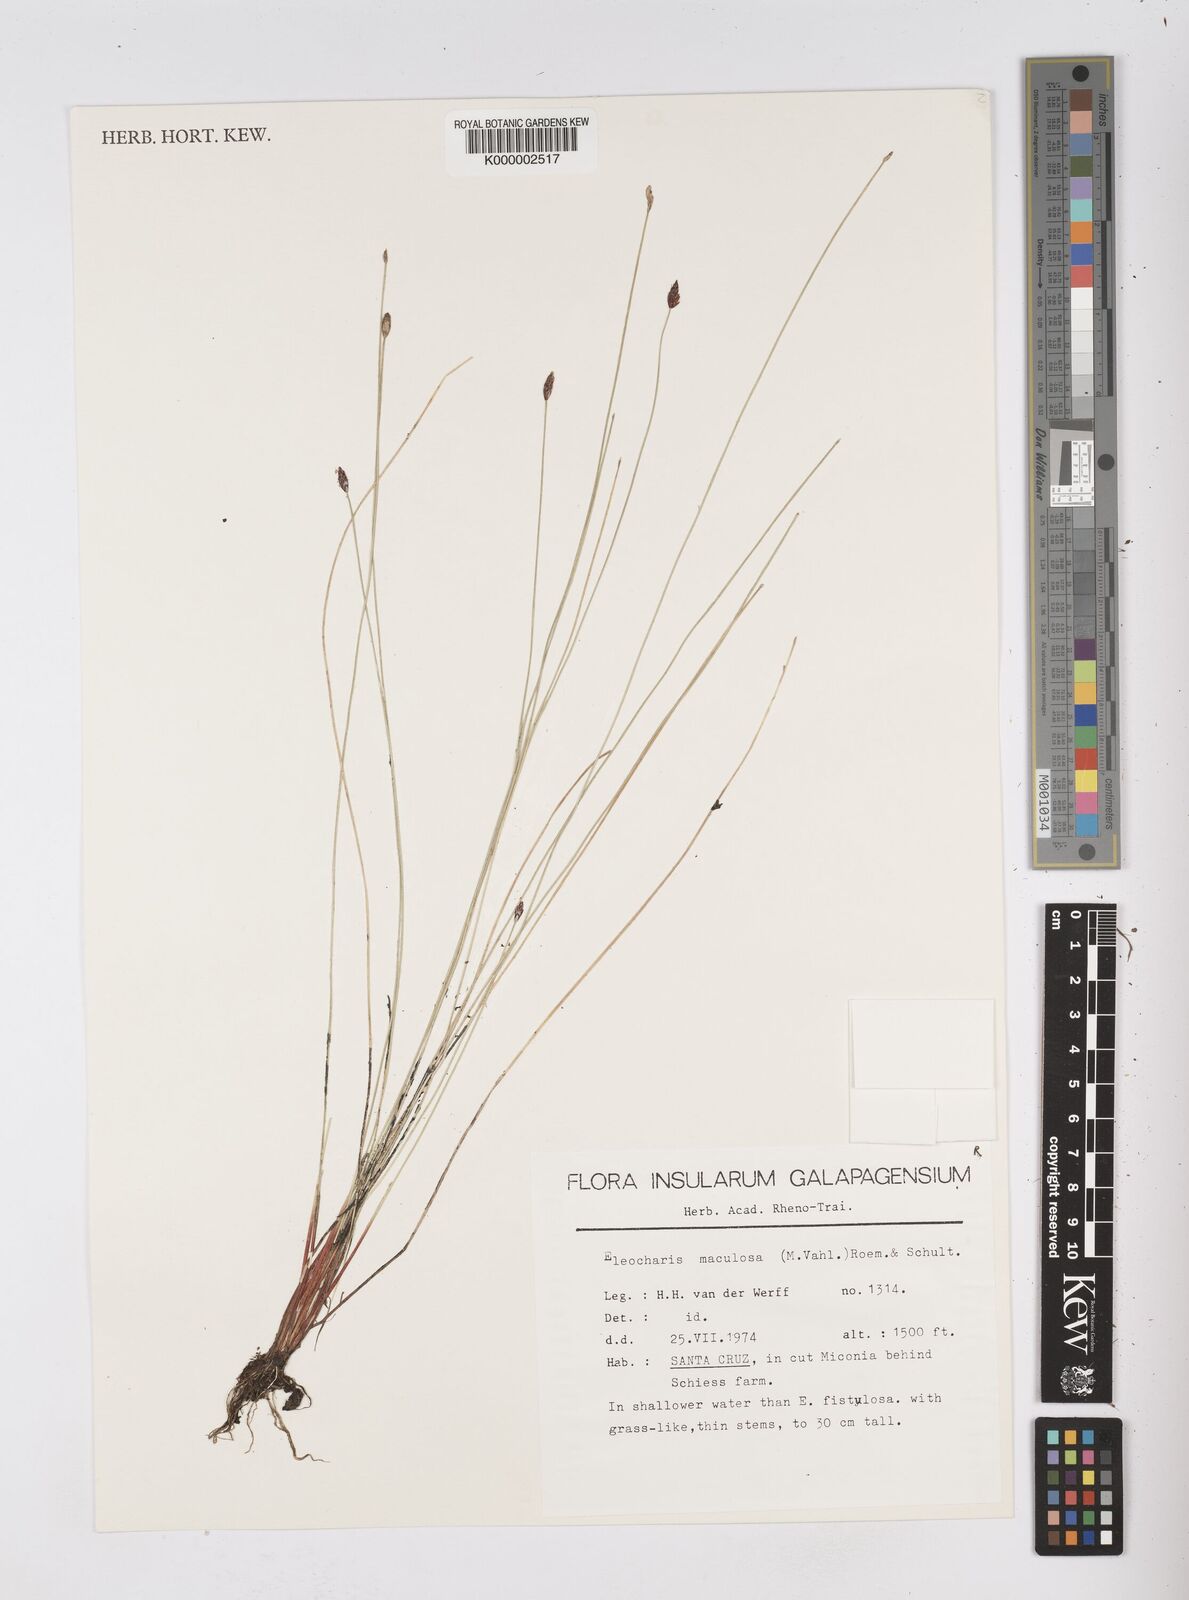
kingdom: Plantae
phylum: Tracheophyta
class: Liliopsida
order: Poales
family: Cyperaceae
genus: Eleocharis
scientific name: Eleocharis maculosa
